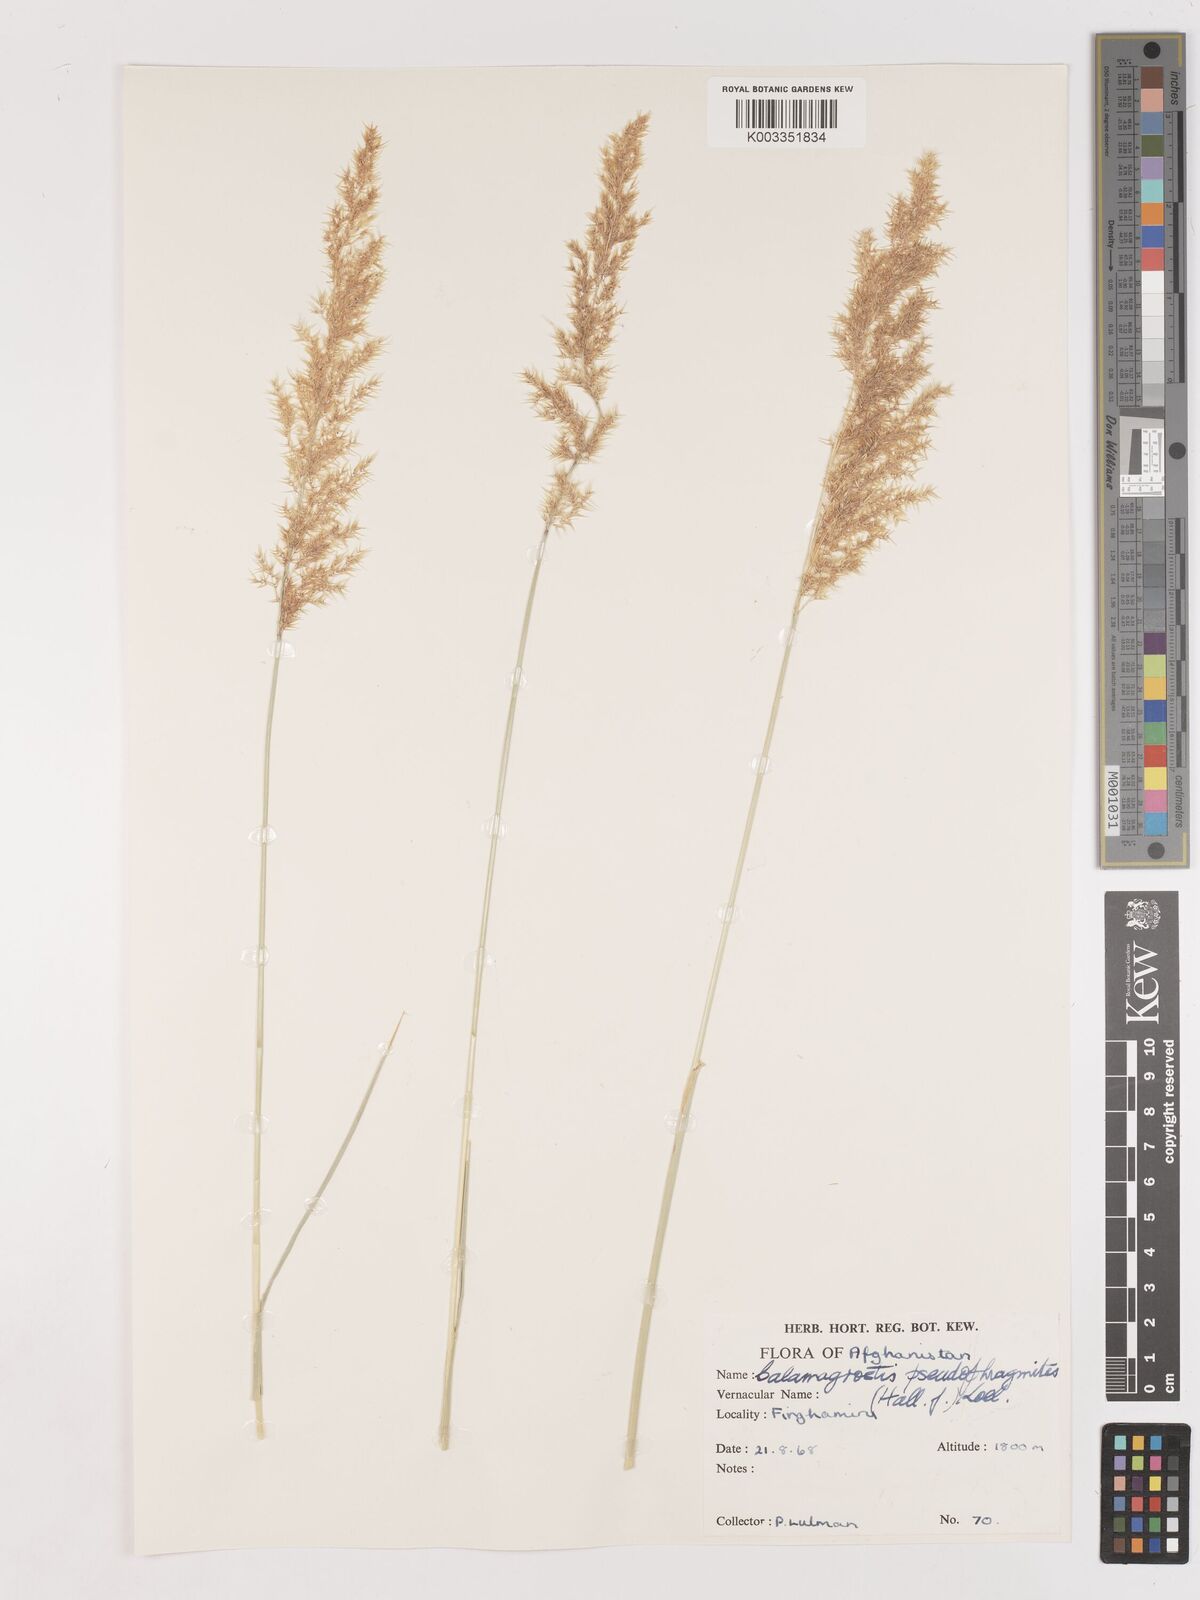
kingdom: Plantae
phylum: Tracheophyta
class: Liliopsida
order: Poales
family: Poaceae
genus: Calamagrostis
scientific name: Calamagrostis pseudophragmites
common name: Coastal small-reed
